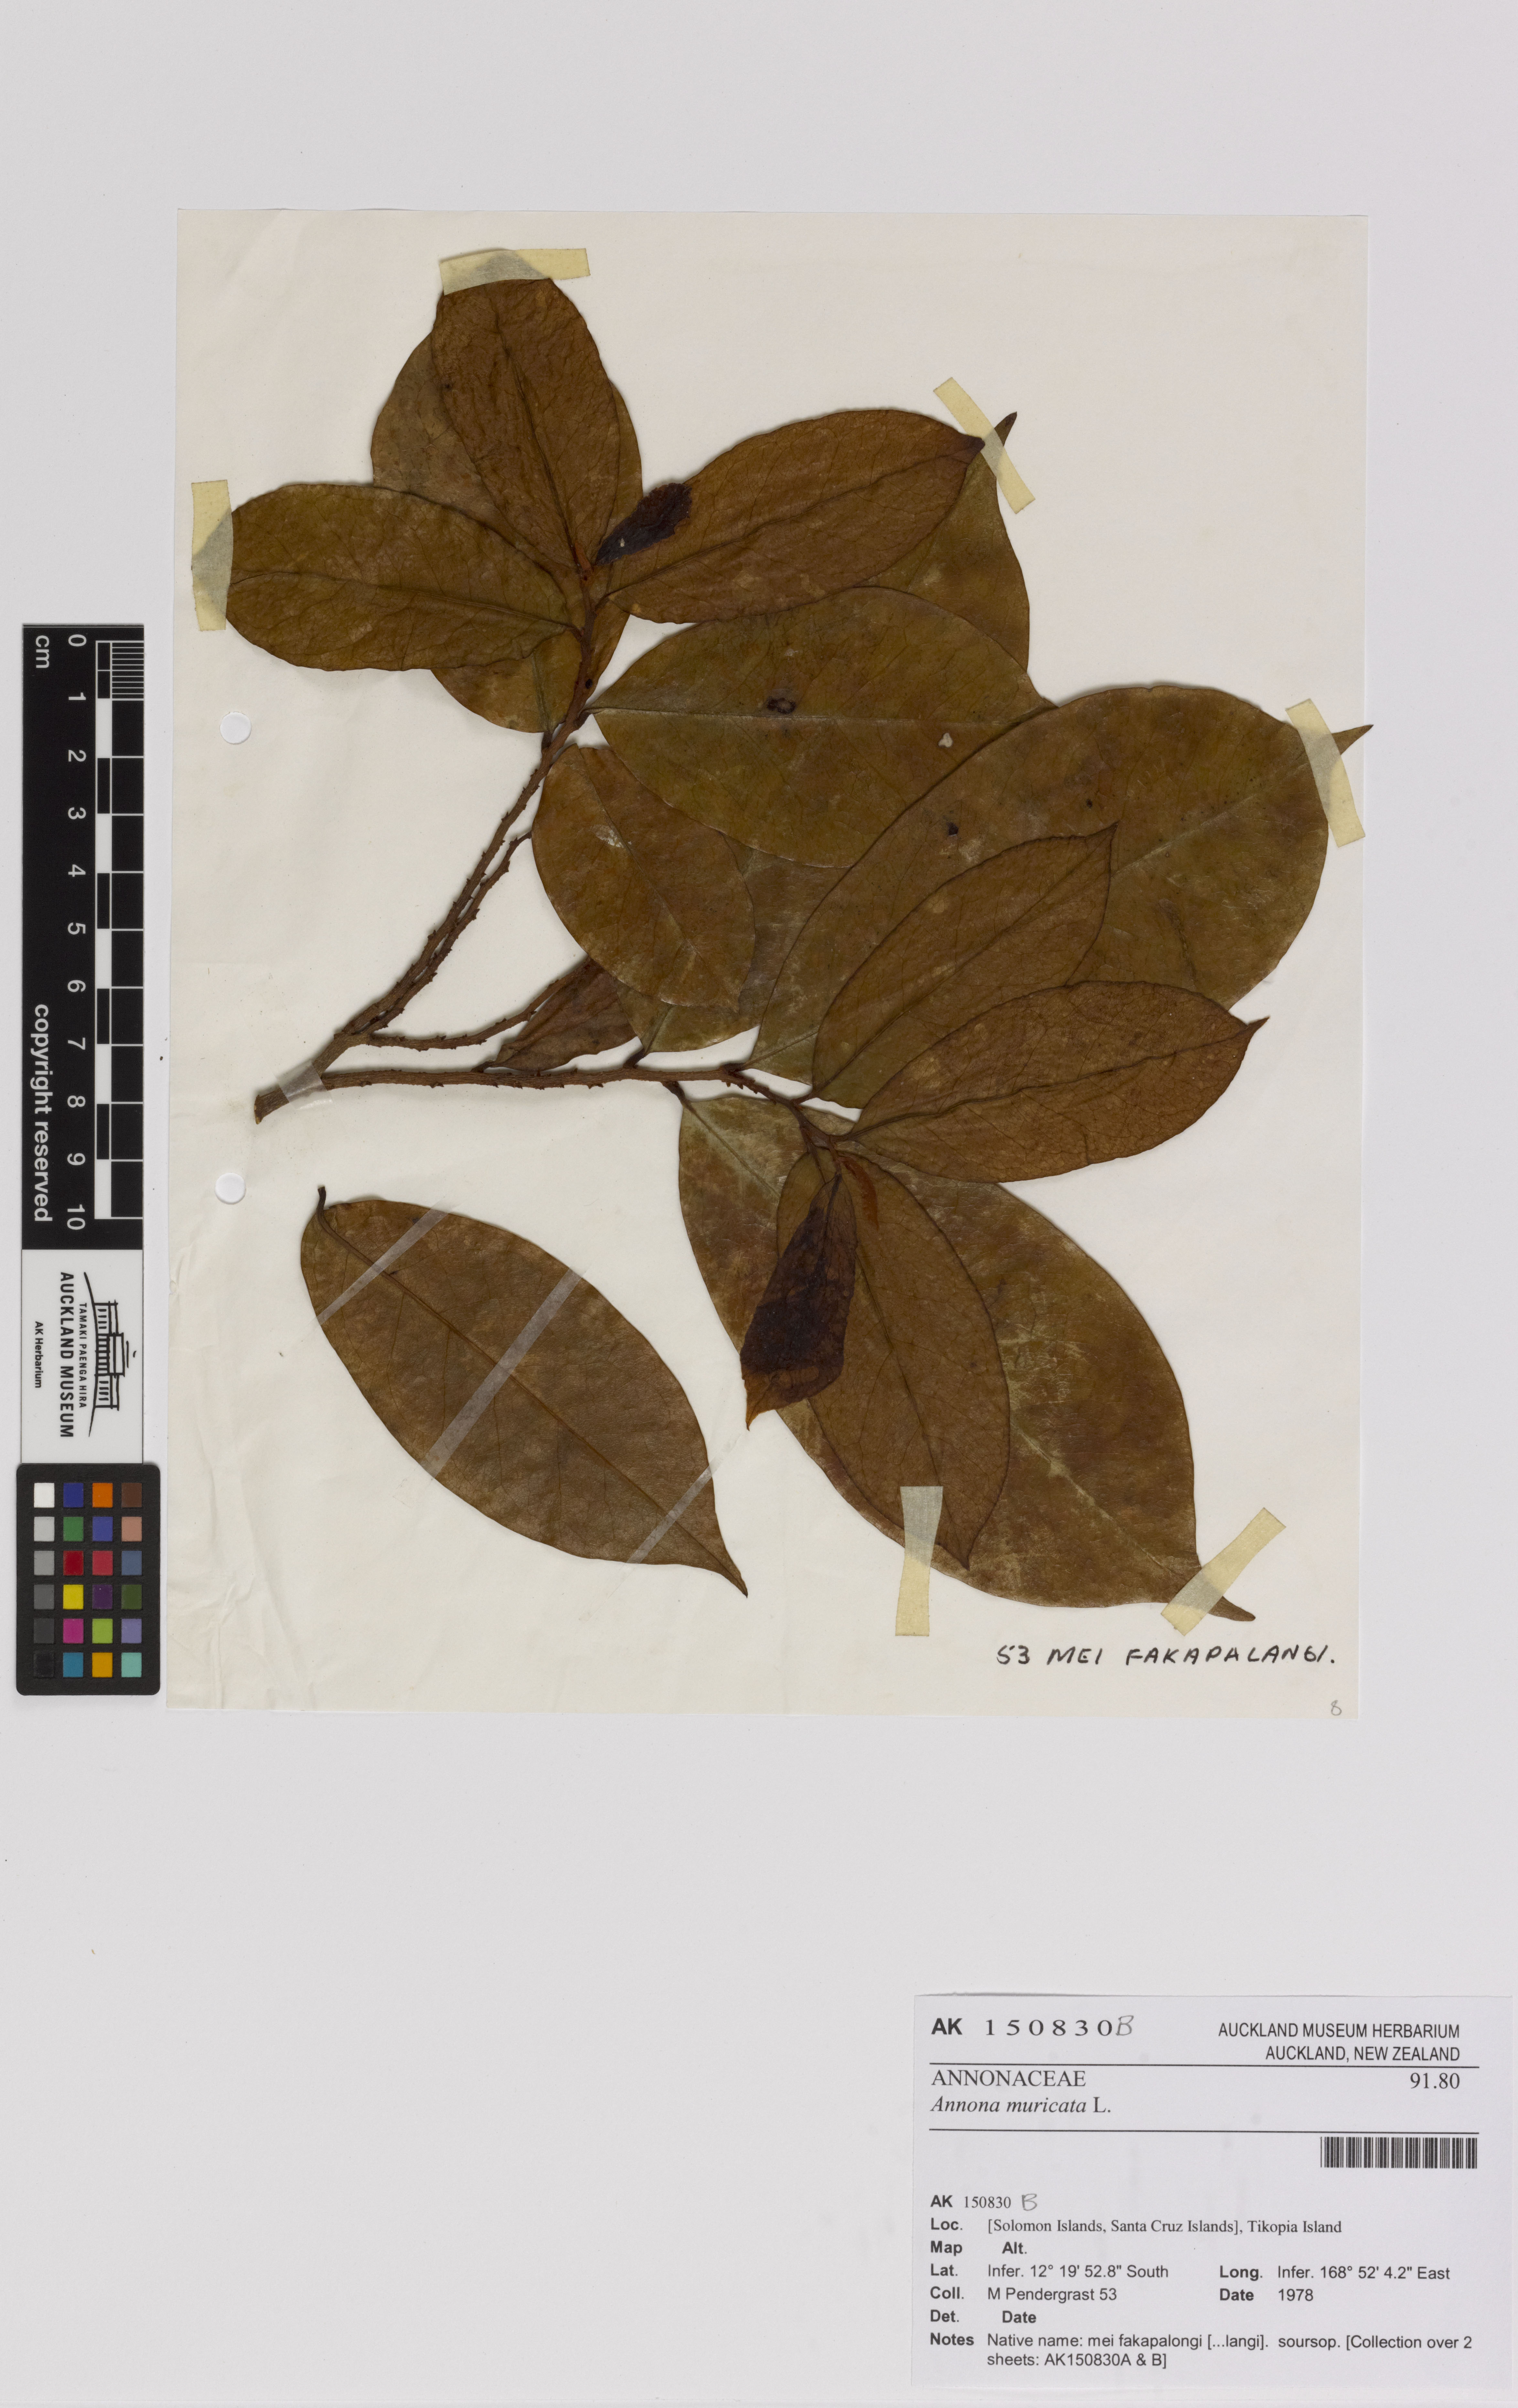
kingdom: Plantae
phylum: Tracheophyta
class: Magnoliopsida
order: Magnoliales
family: Annonaceae
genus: Annona
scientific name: Annona muricata
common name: Soursop
